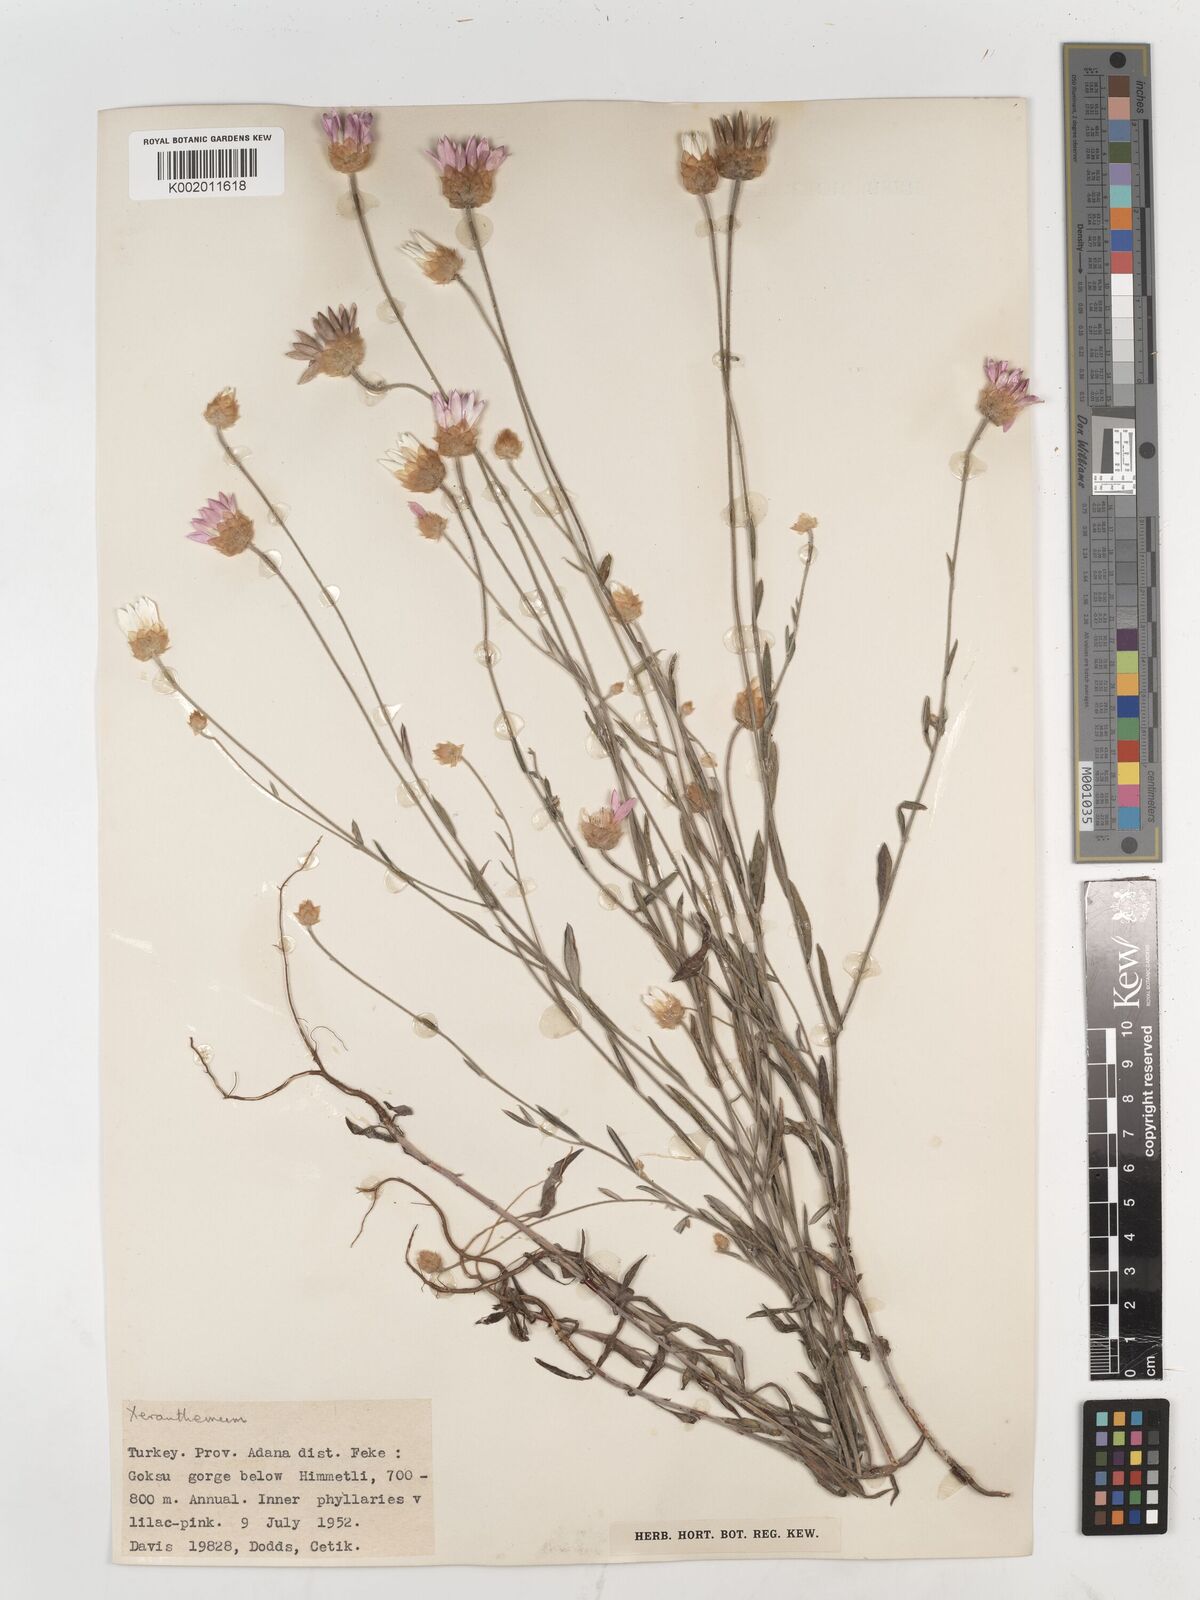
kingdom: Plantae
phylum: Tracheophyta
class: Magnoliopsida
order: Asterales
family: Asteraceae
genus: Xeranthemum
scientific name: Xeranthemum annuum
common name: Immortelle
